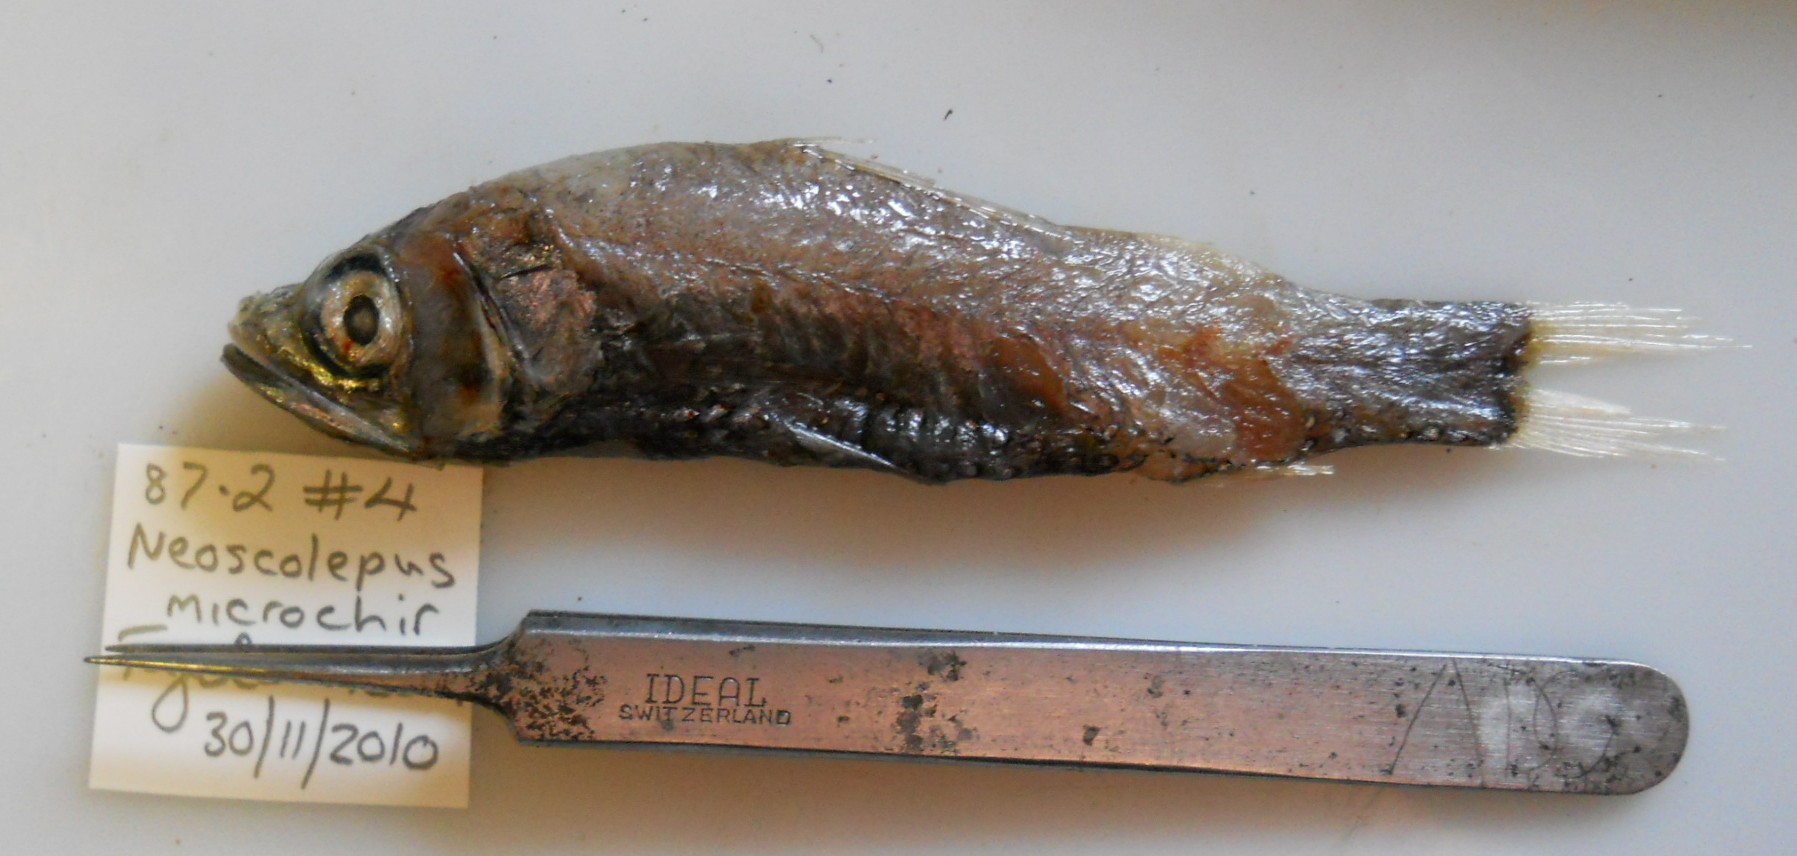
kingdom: Animalia
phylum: Chordata
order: Myctophiformes
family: Neoscopelidae
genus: Neoscopelus
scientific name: Neoscopelus microchir
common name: Shortfin neoscopelid
